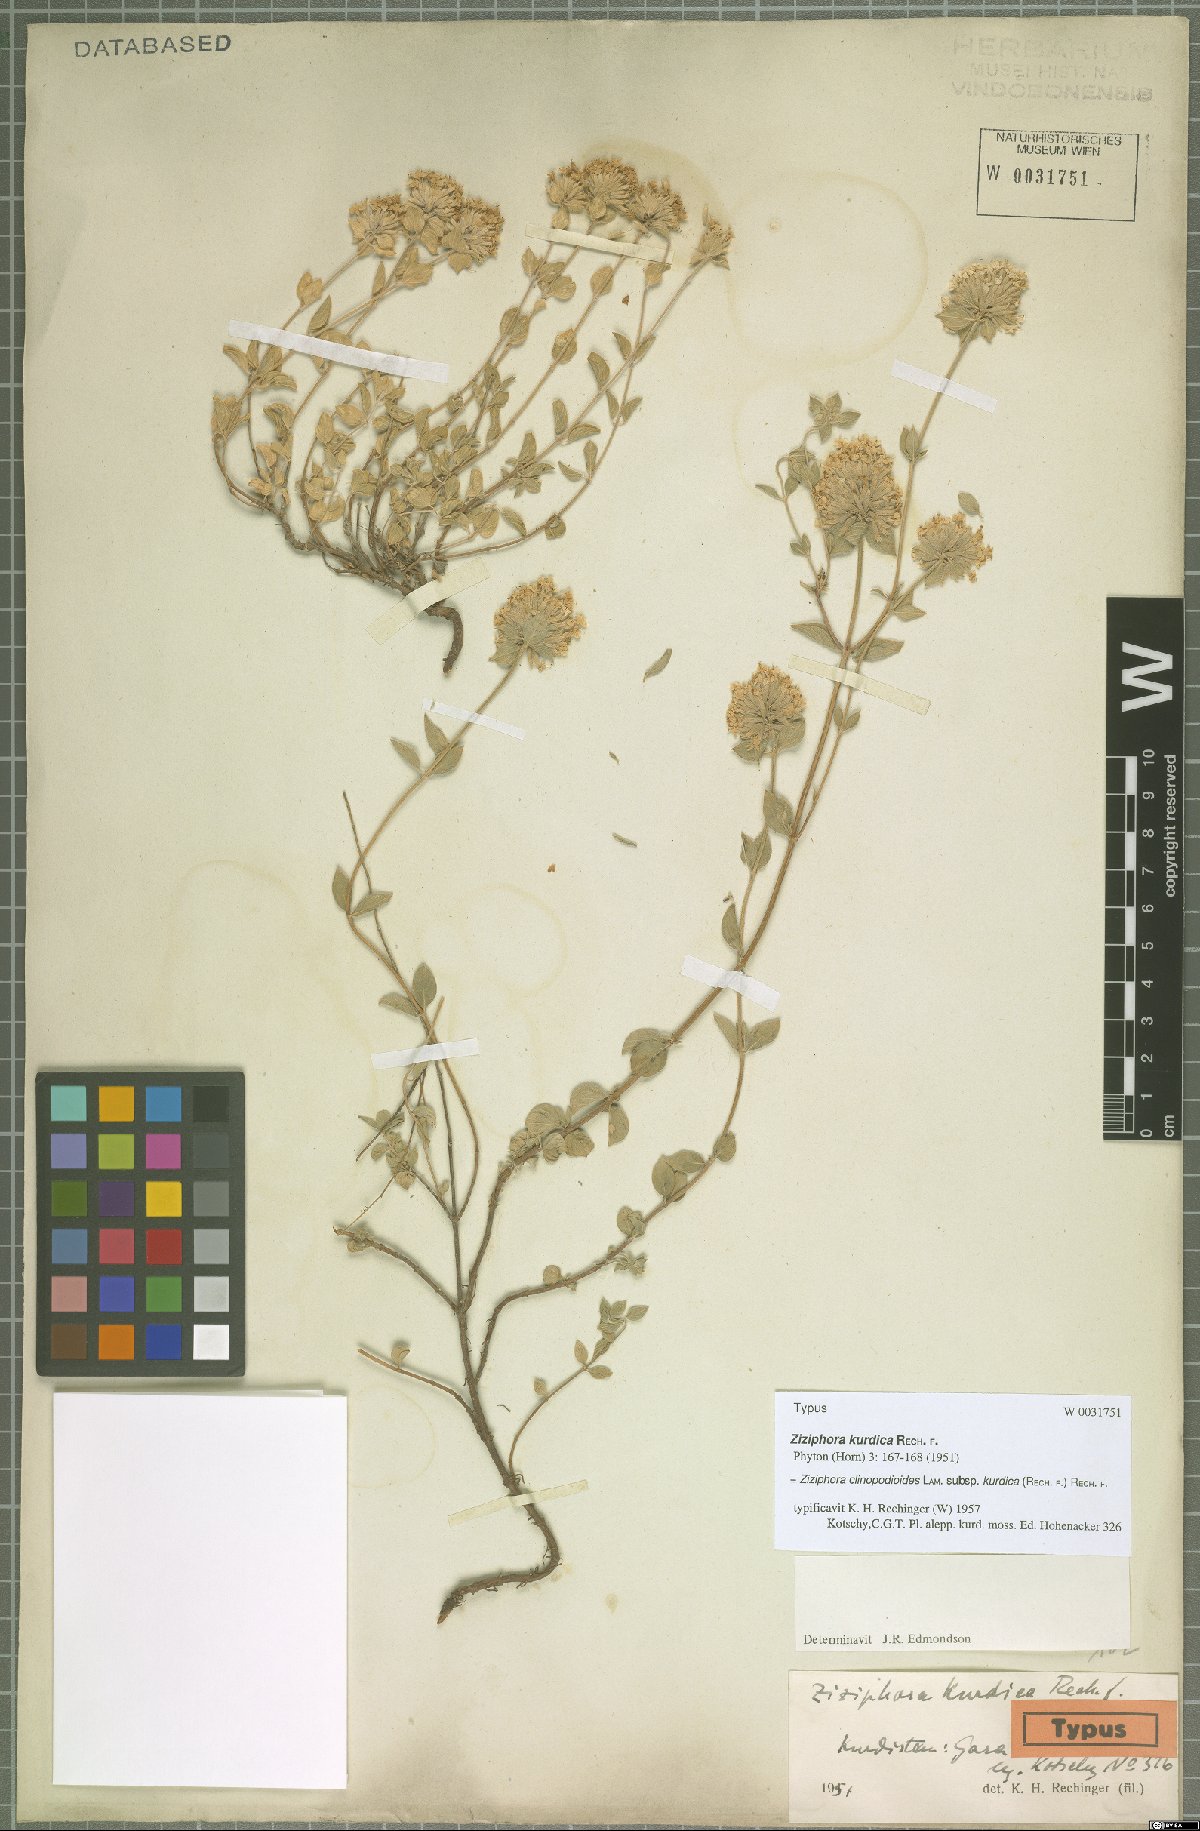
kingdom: Plantae
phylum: Tracheophyta
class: Magnoliopsida
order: Lamiales
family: Lamiaceae
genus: Ziziphora
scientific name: Ziziphora clinopodioides
